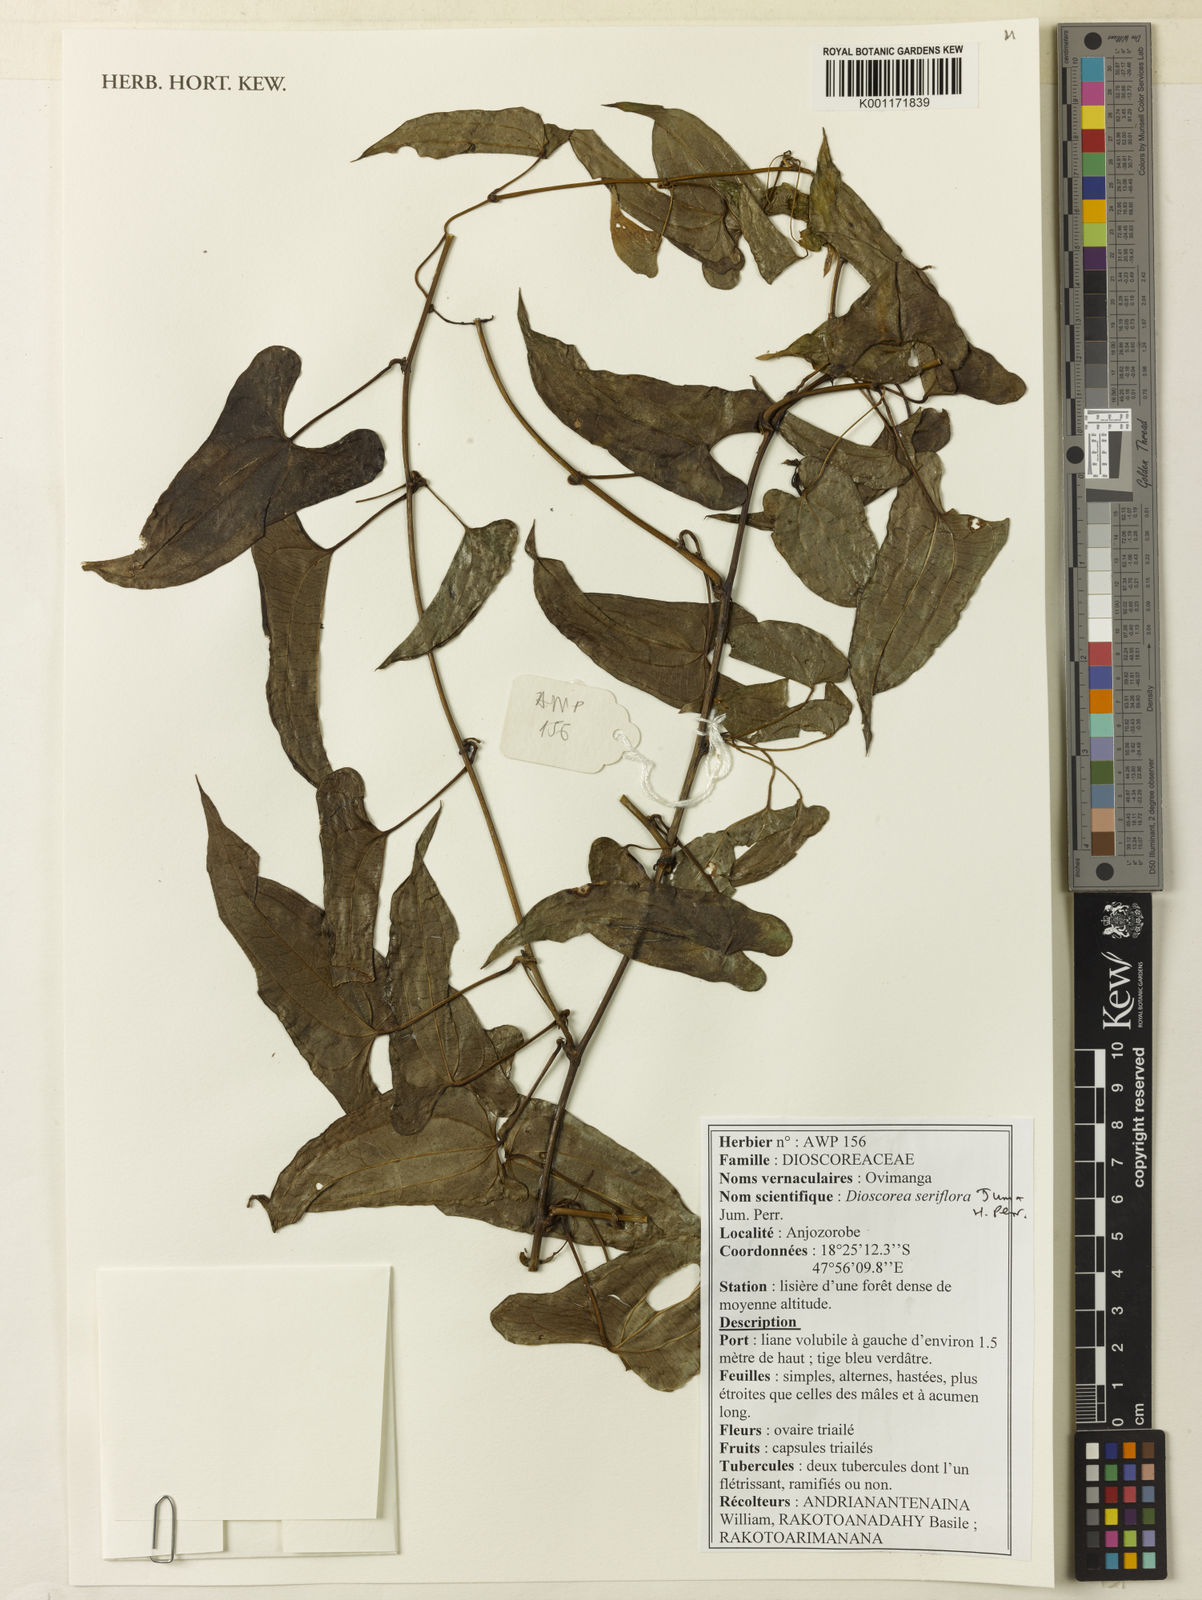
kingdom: Plantae
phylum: Tracheophyta
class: Liliopsida
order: Dioscoreales
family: Dioscoreaceae
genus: Dioscorea
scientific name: Dioscorea seriflora
